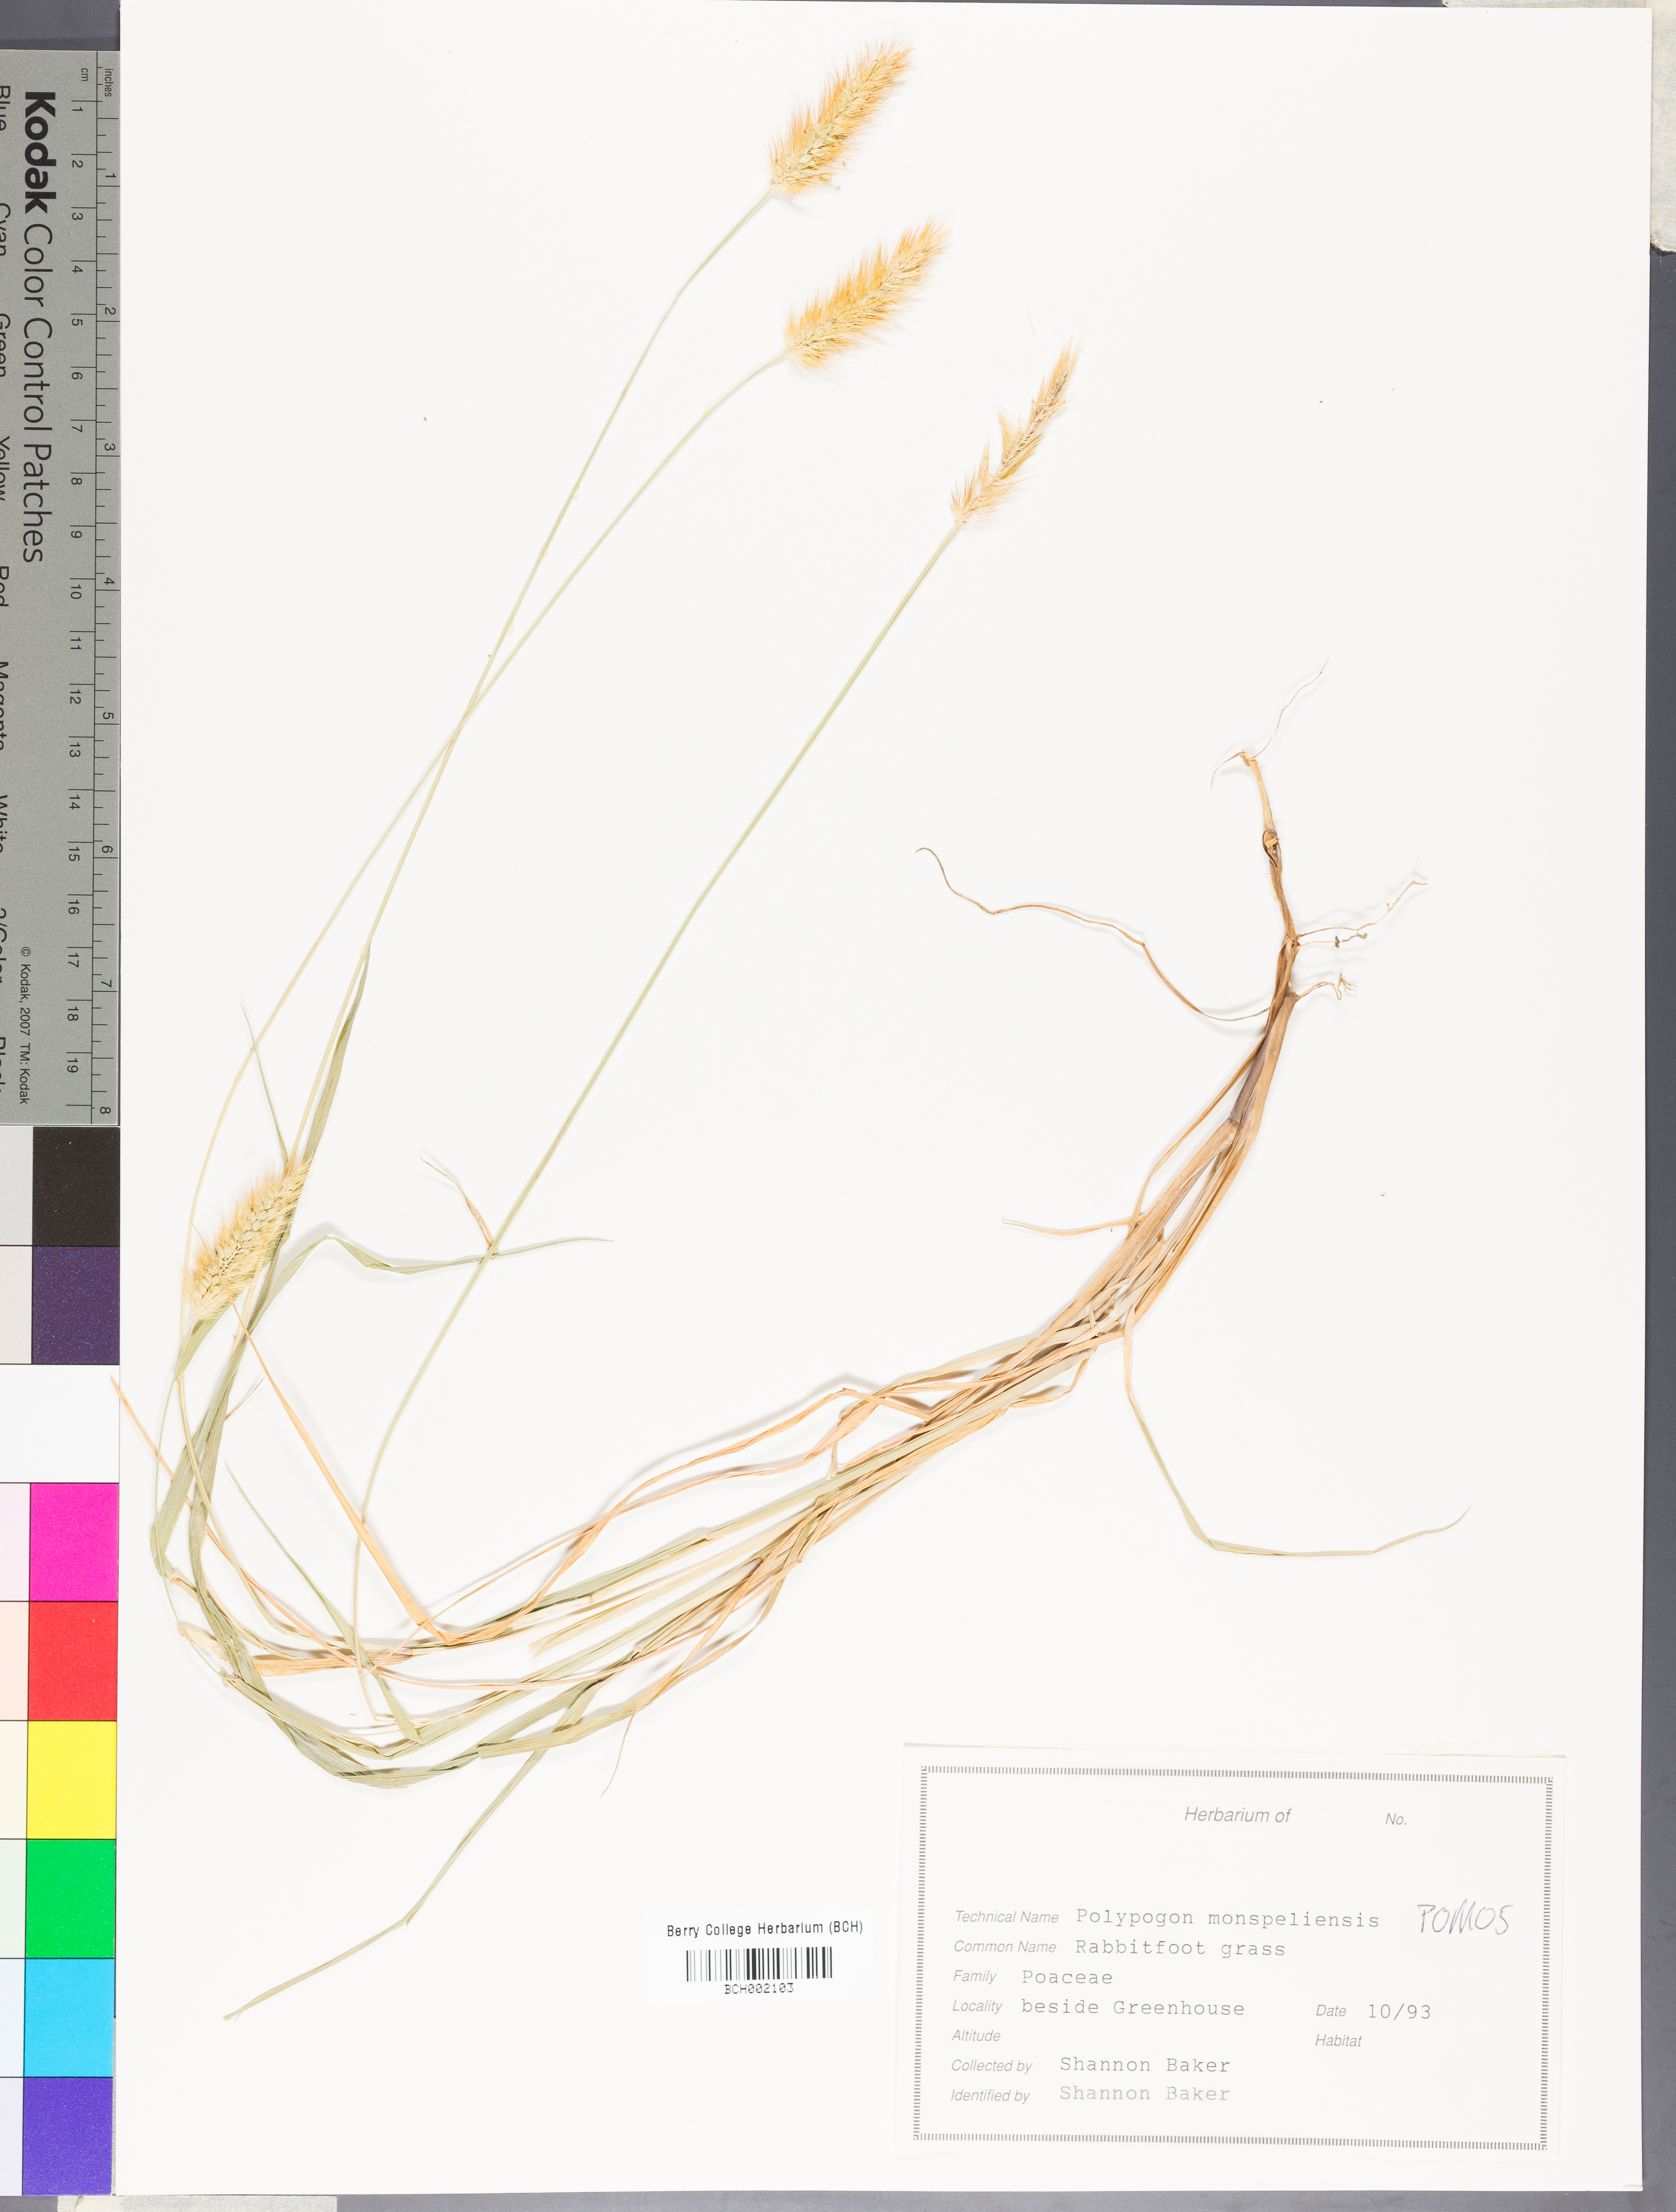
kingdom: Plantae
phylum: Tracheophyta
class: Liliopsida
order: Poales
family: Poaceae
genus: Polypogon
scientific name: Polypogon monspeliensis
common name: Annual rabbitsfoot grass
